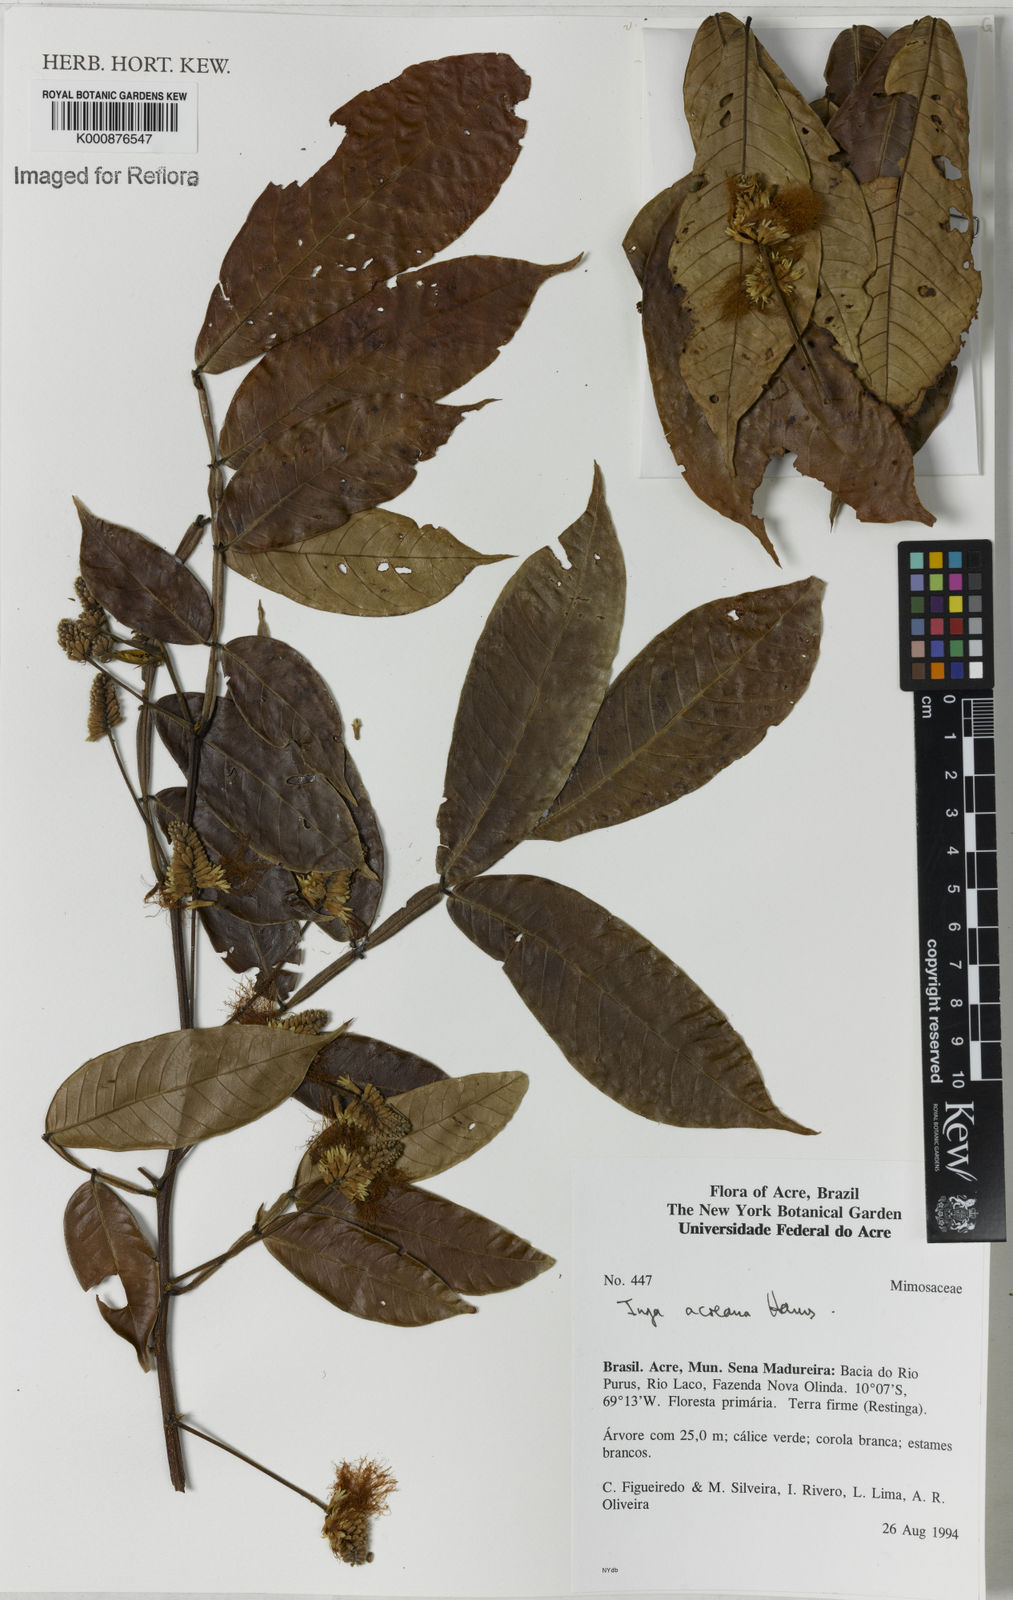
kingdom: Plantae
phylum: Tracheophyta
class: Magnoliopsida
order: Fabales
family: Fabaceae
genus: Inga
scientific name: Inga acreana
